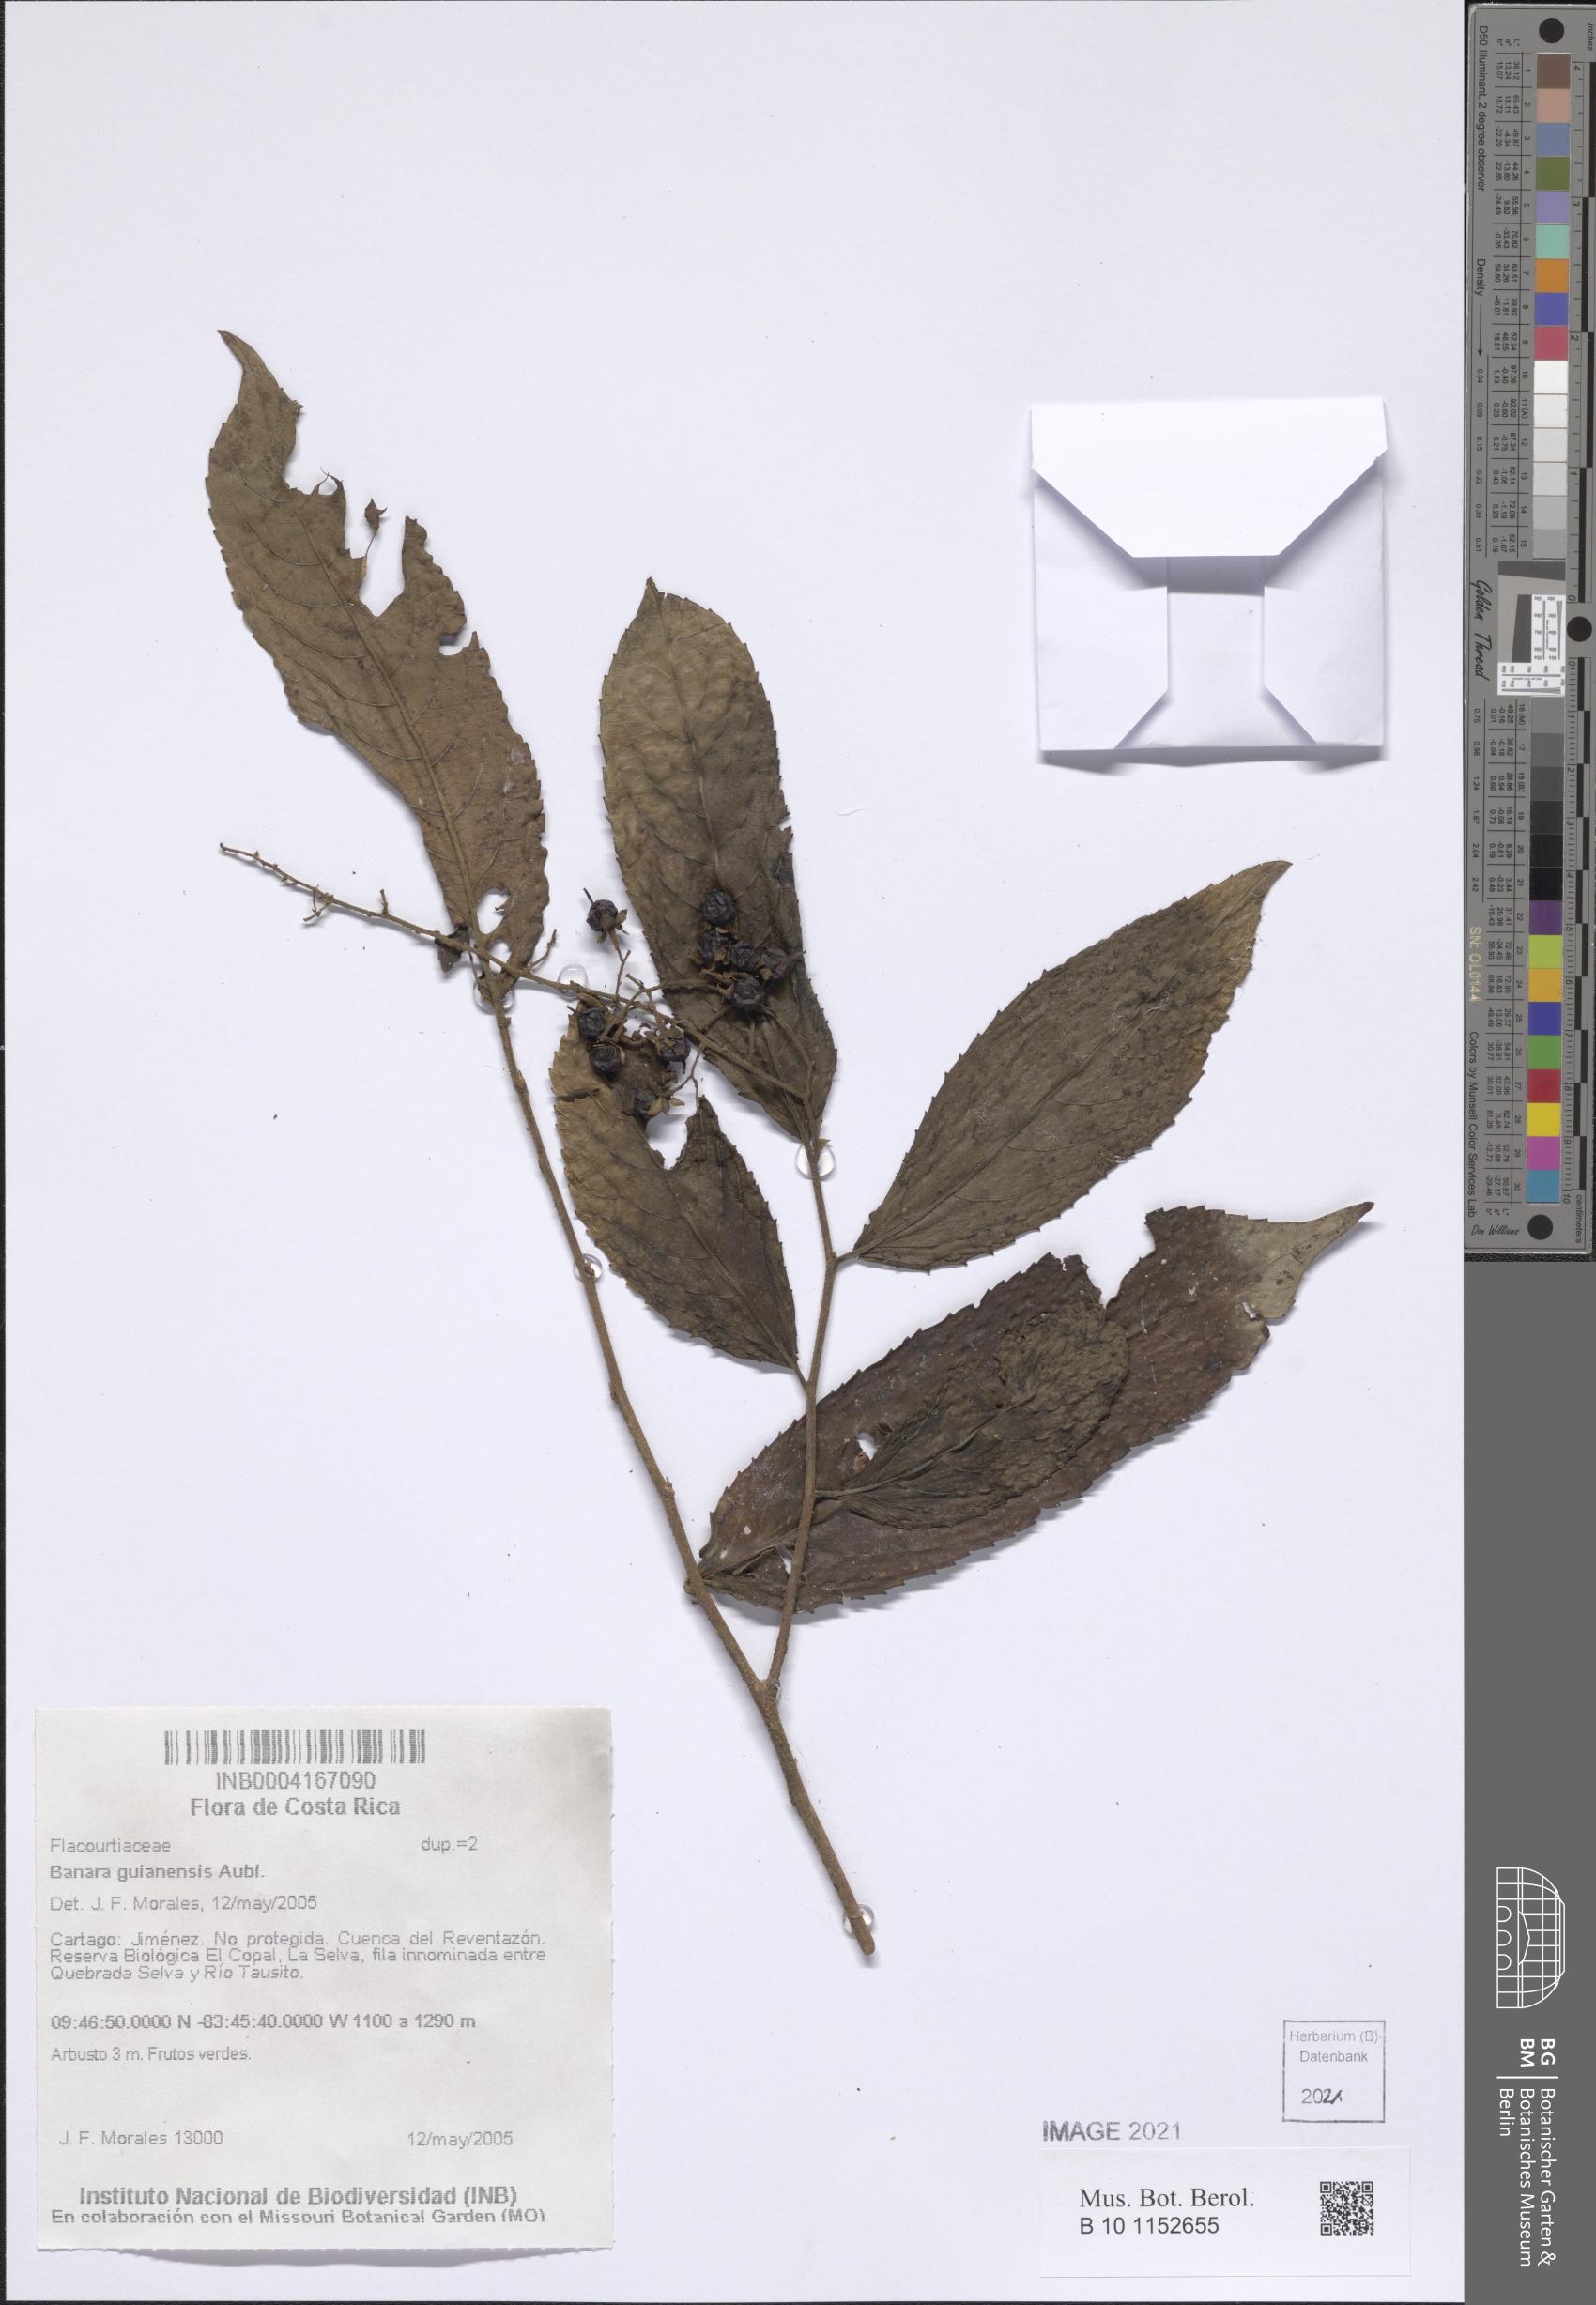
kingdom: Plantae
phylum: Tracheophyta
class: Magnoliopsida
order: Malpighiales
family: Salicaceae
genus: Banara
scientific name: Banara guianensis
